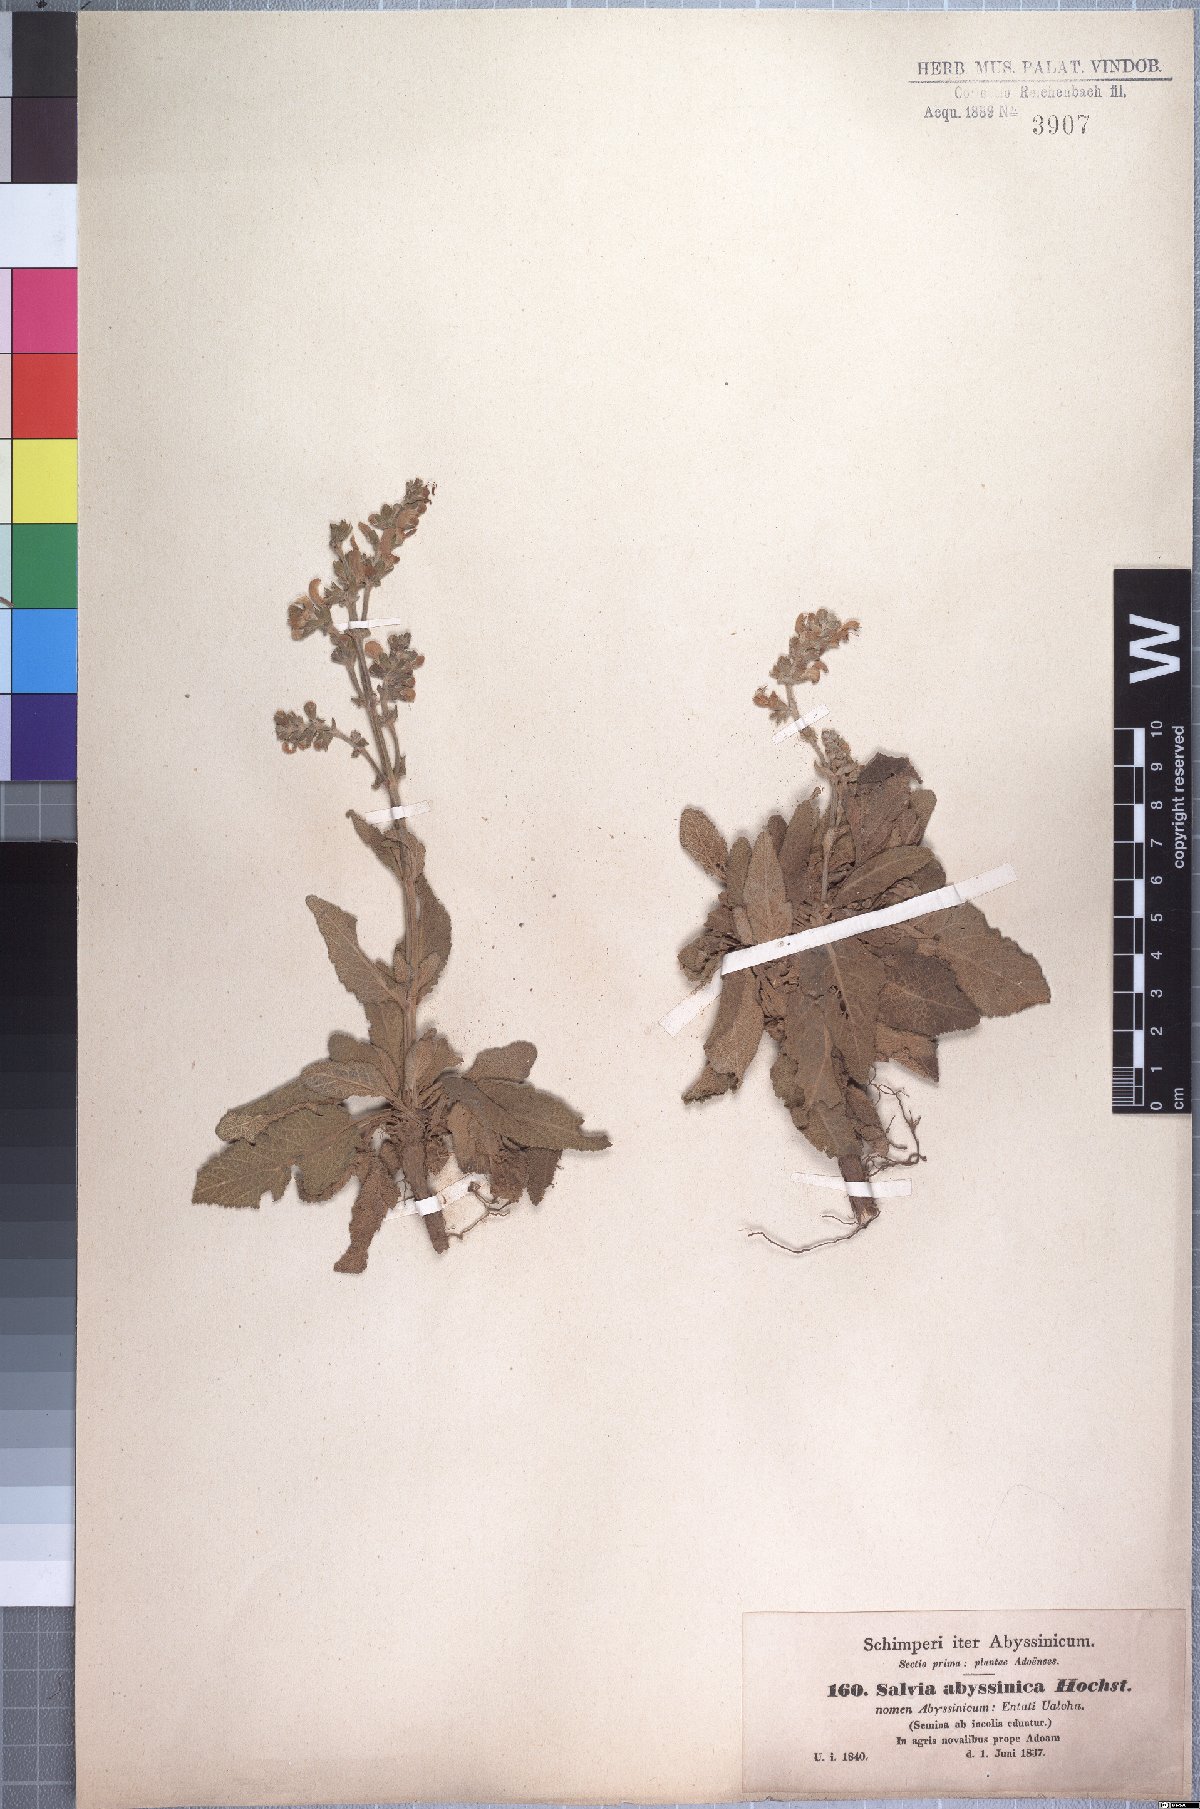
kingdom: Plantae
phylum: Tracheophyta
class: Magnoliopsida
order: Lamiales
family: Lamiaceae
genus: Salvia
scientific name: Salvia merjamie
